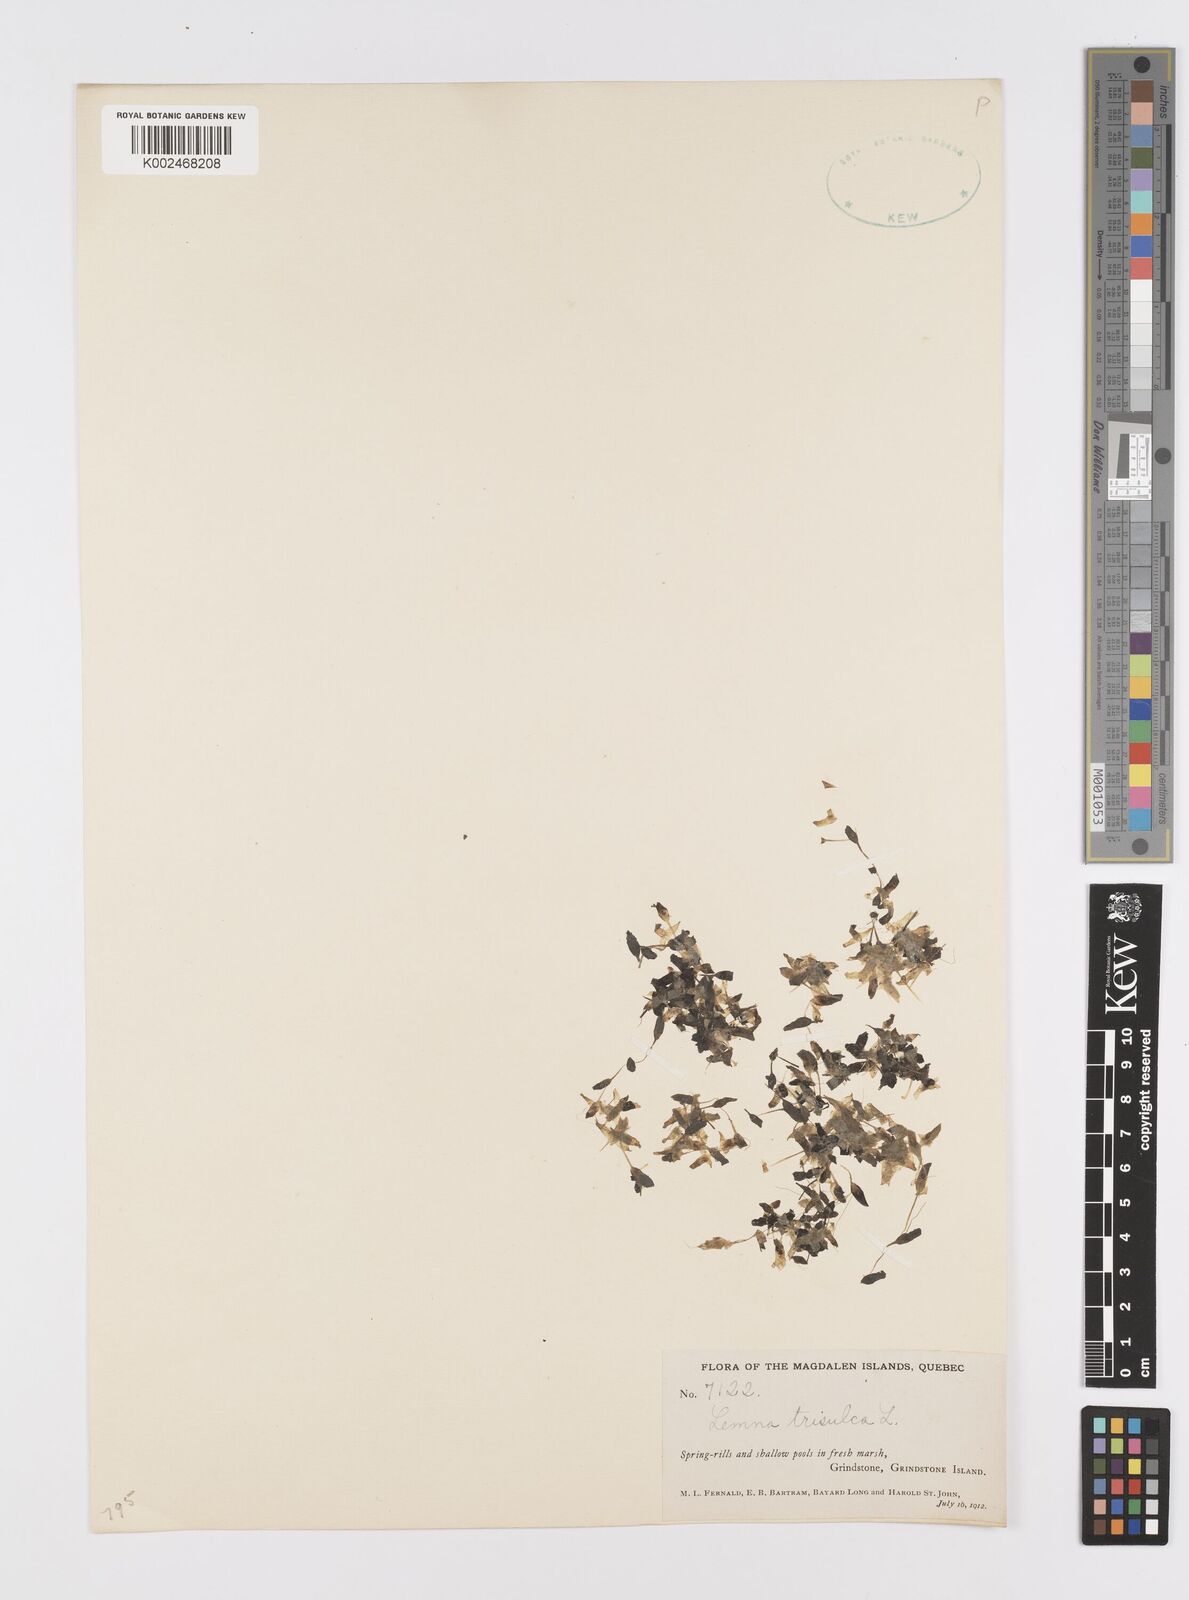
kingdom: Plantae
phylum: Tracheophyta
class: Liliopsida
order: Alismatales
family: Araceae
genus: Lemna
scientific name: Lemna trisulca
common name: Ivy-leaved duckweed
